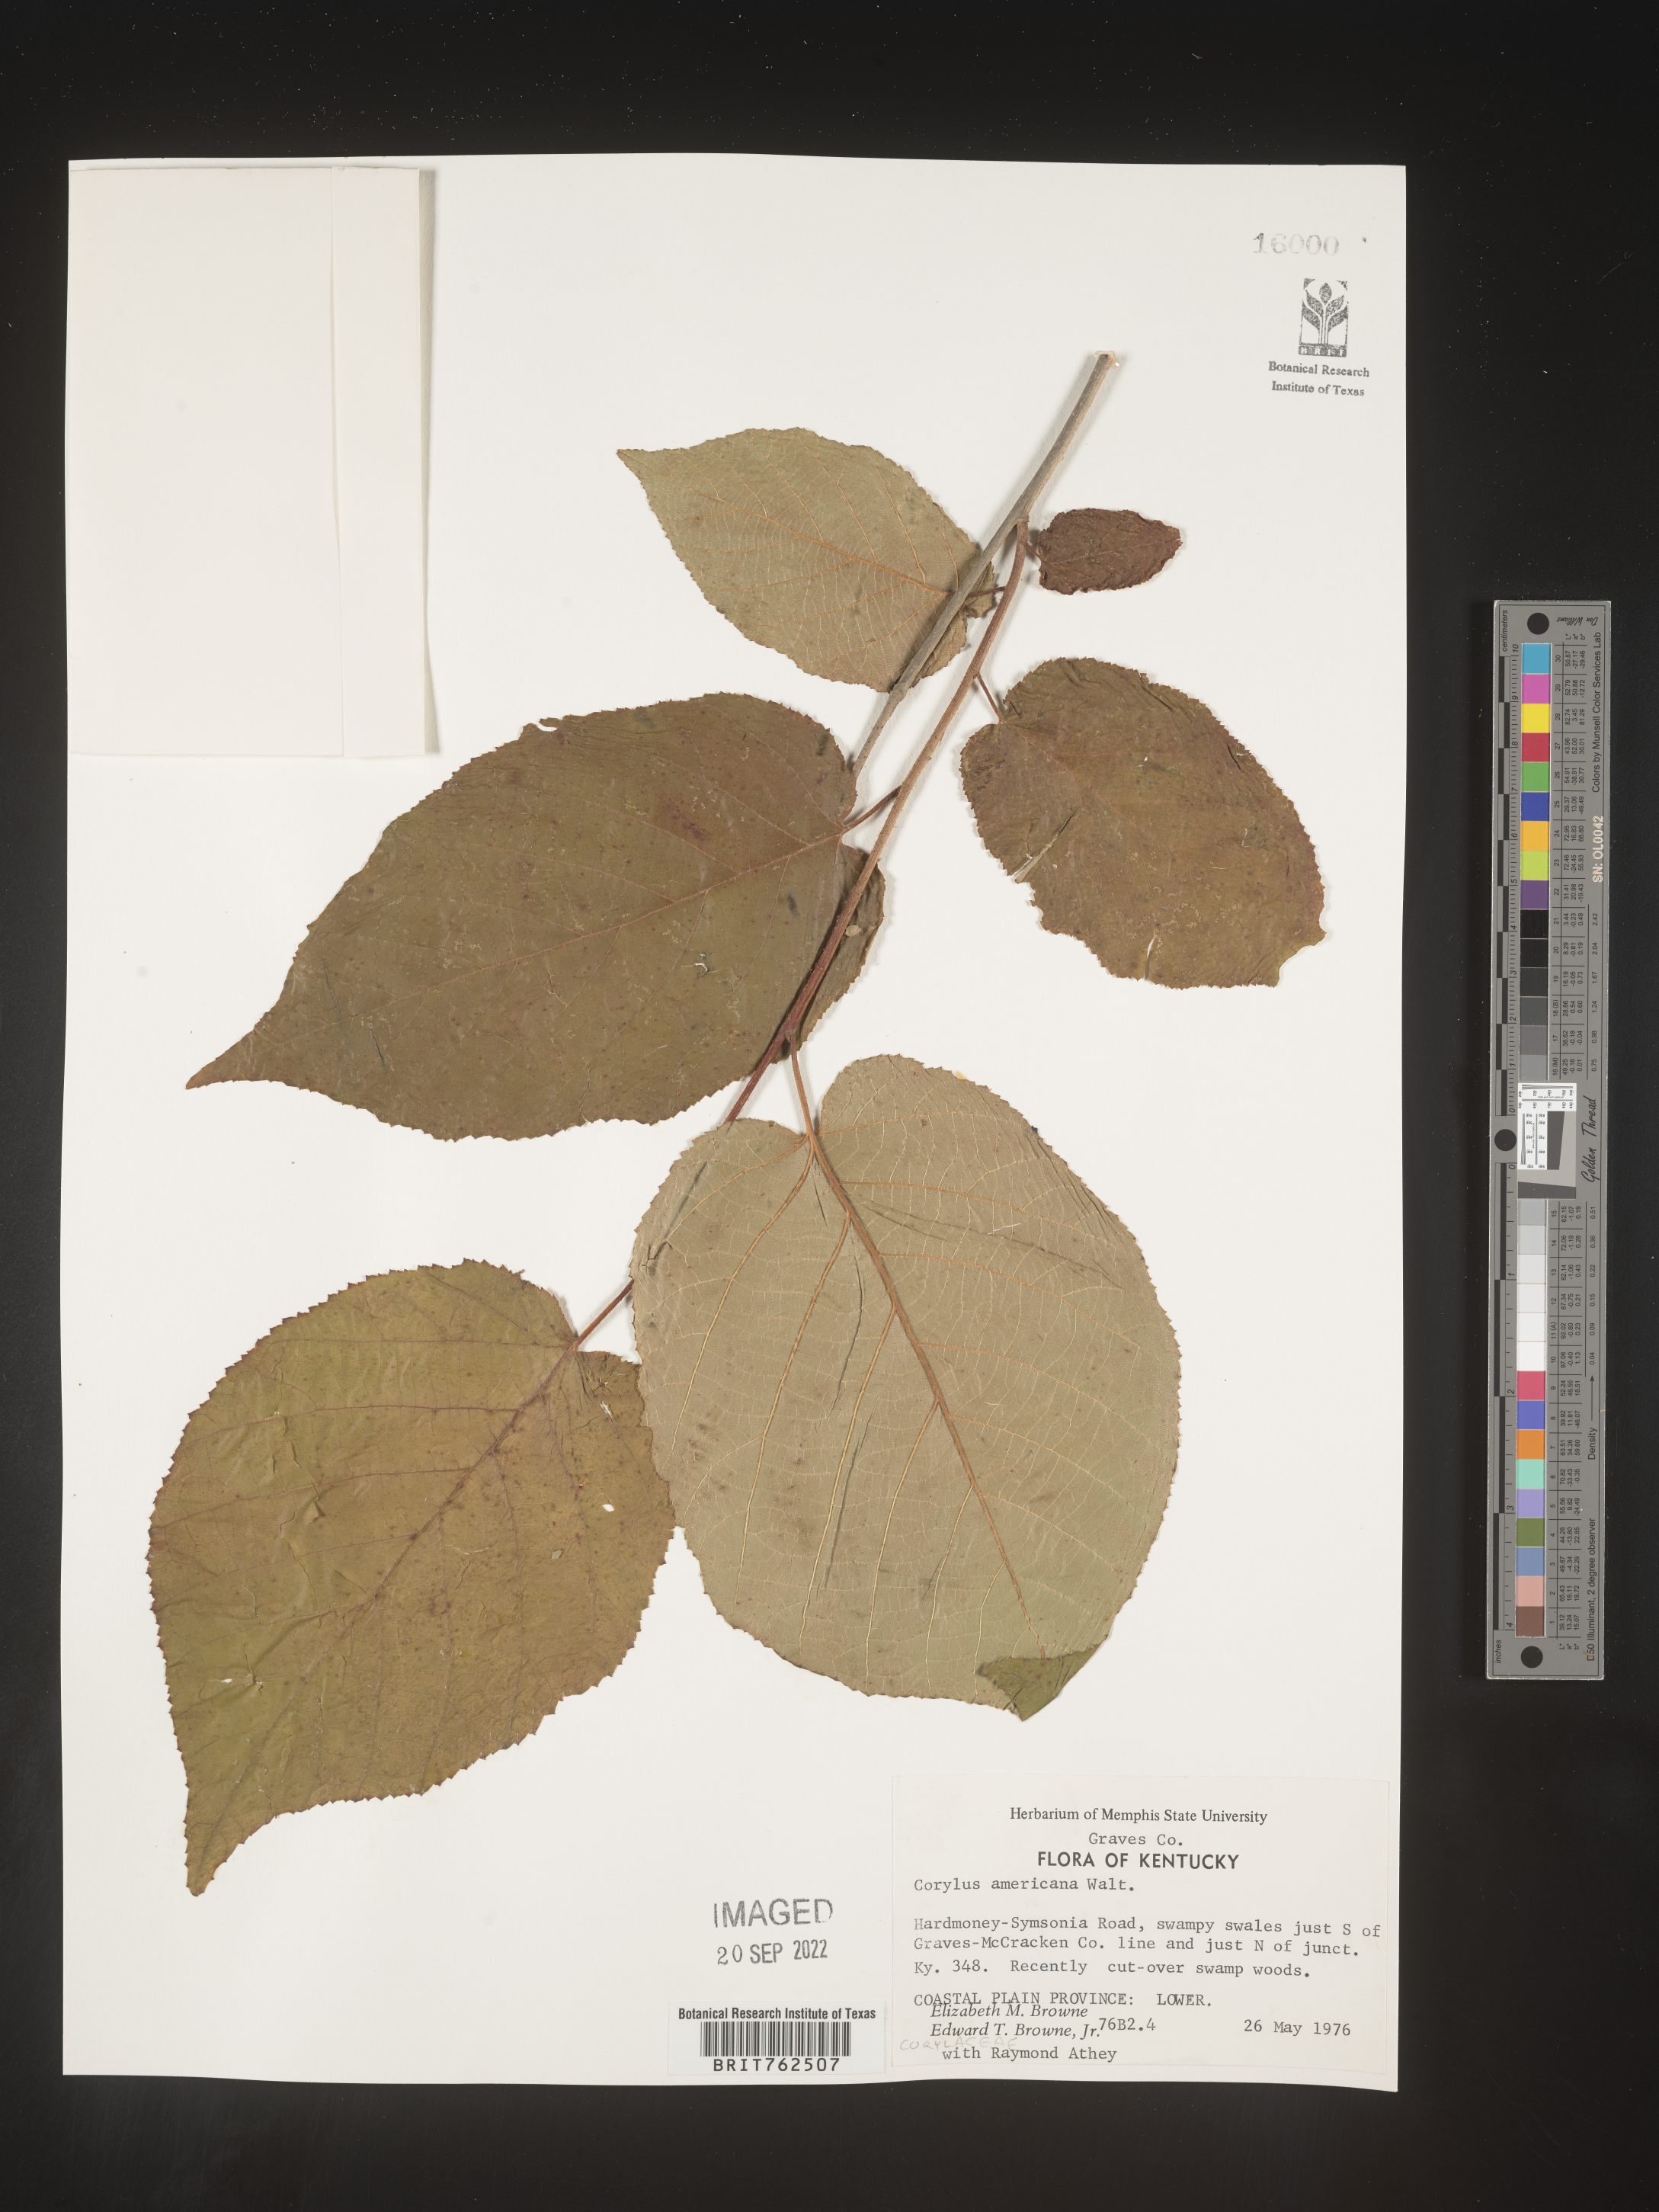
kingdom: Plantae
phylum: Tracheophyta
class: Magnoliopsida
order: Fagales
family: Betulaceae
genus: Corylus
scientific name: Corylus americana
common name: American hazel
